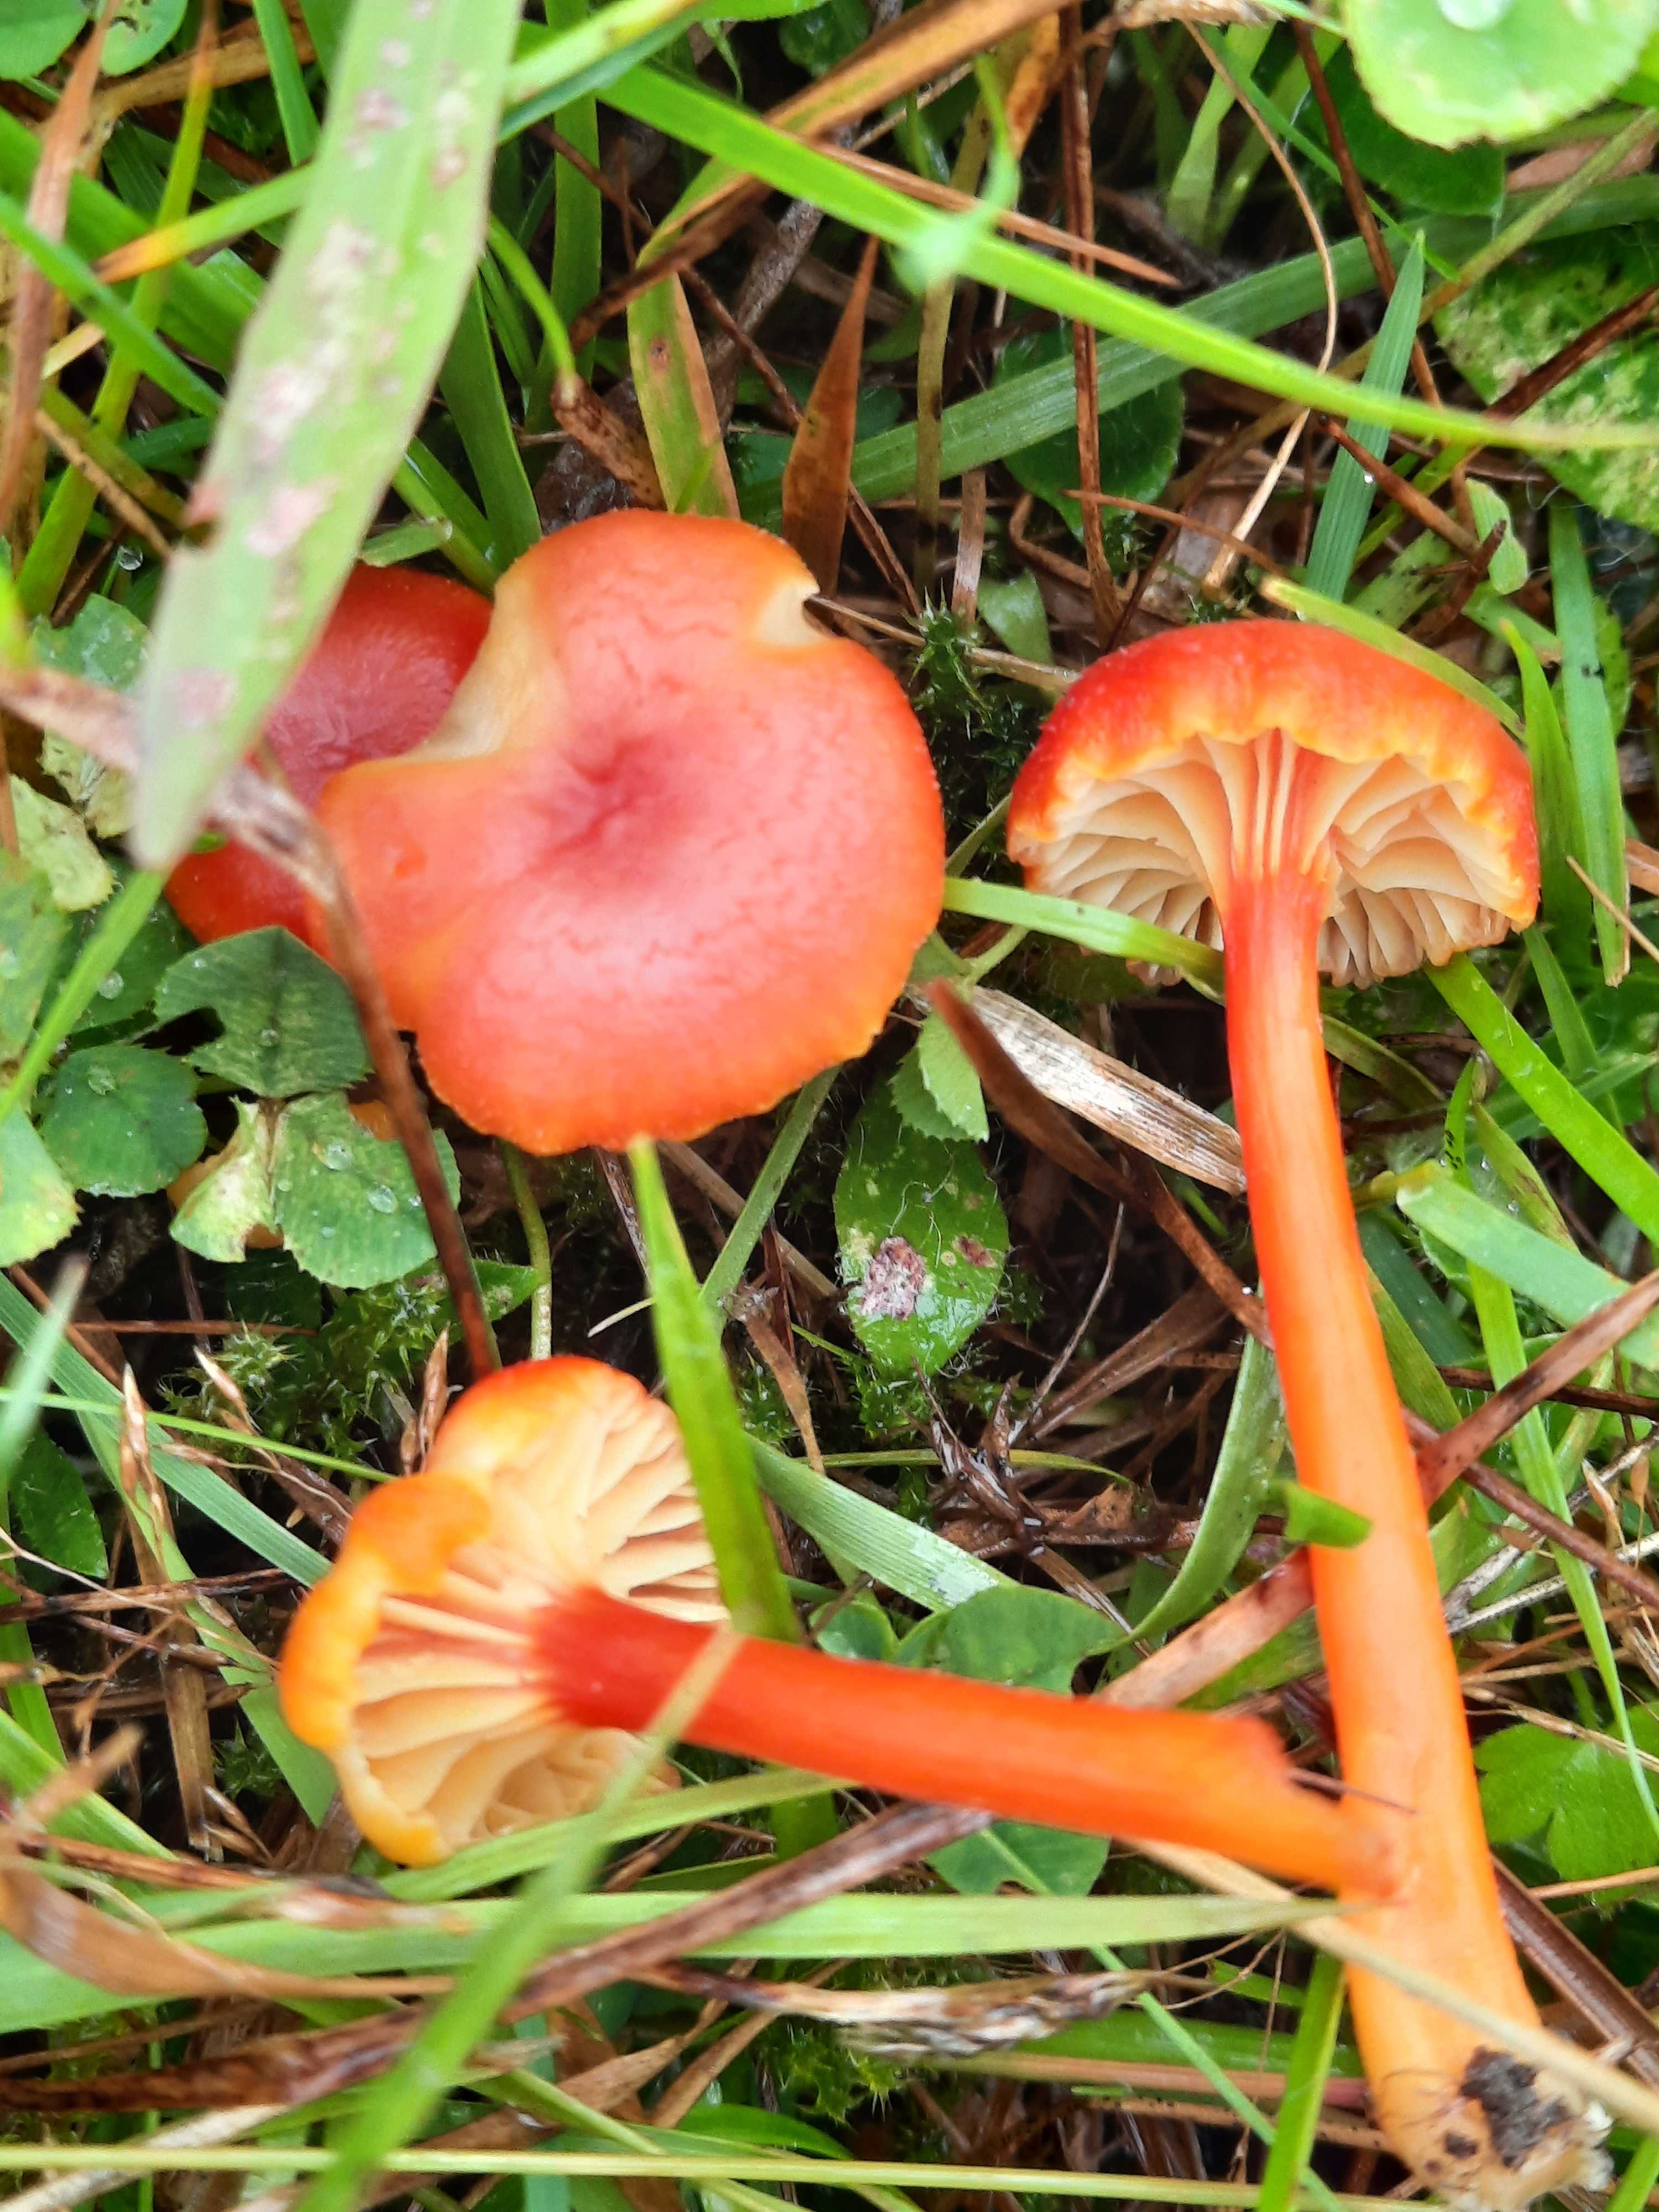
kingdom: Fungi
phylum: Basidiomycota
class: Agaricomycetes
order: Agaricales
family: Hygrophoraceae
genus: Hygrocybe
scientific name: Hygrocybe cantharellus
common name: kantarel-vokshat
